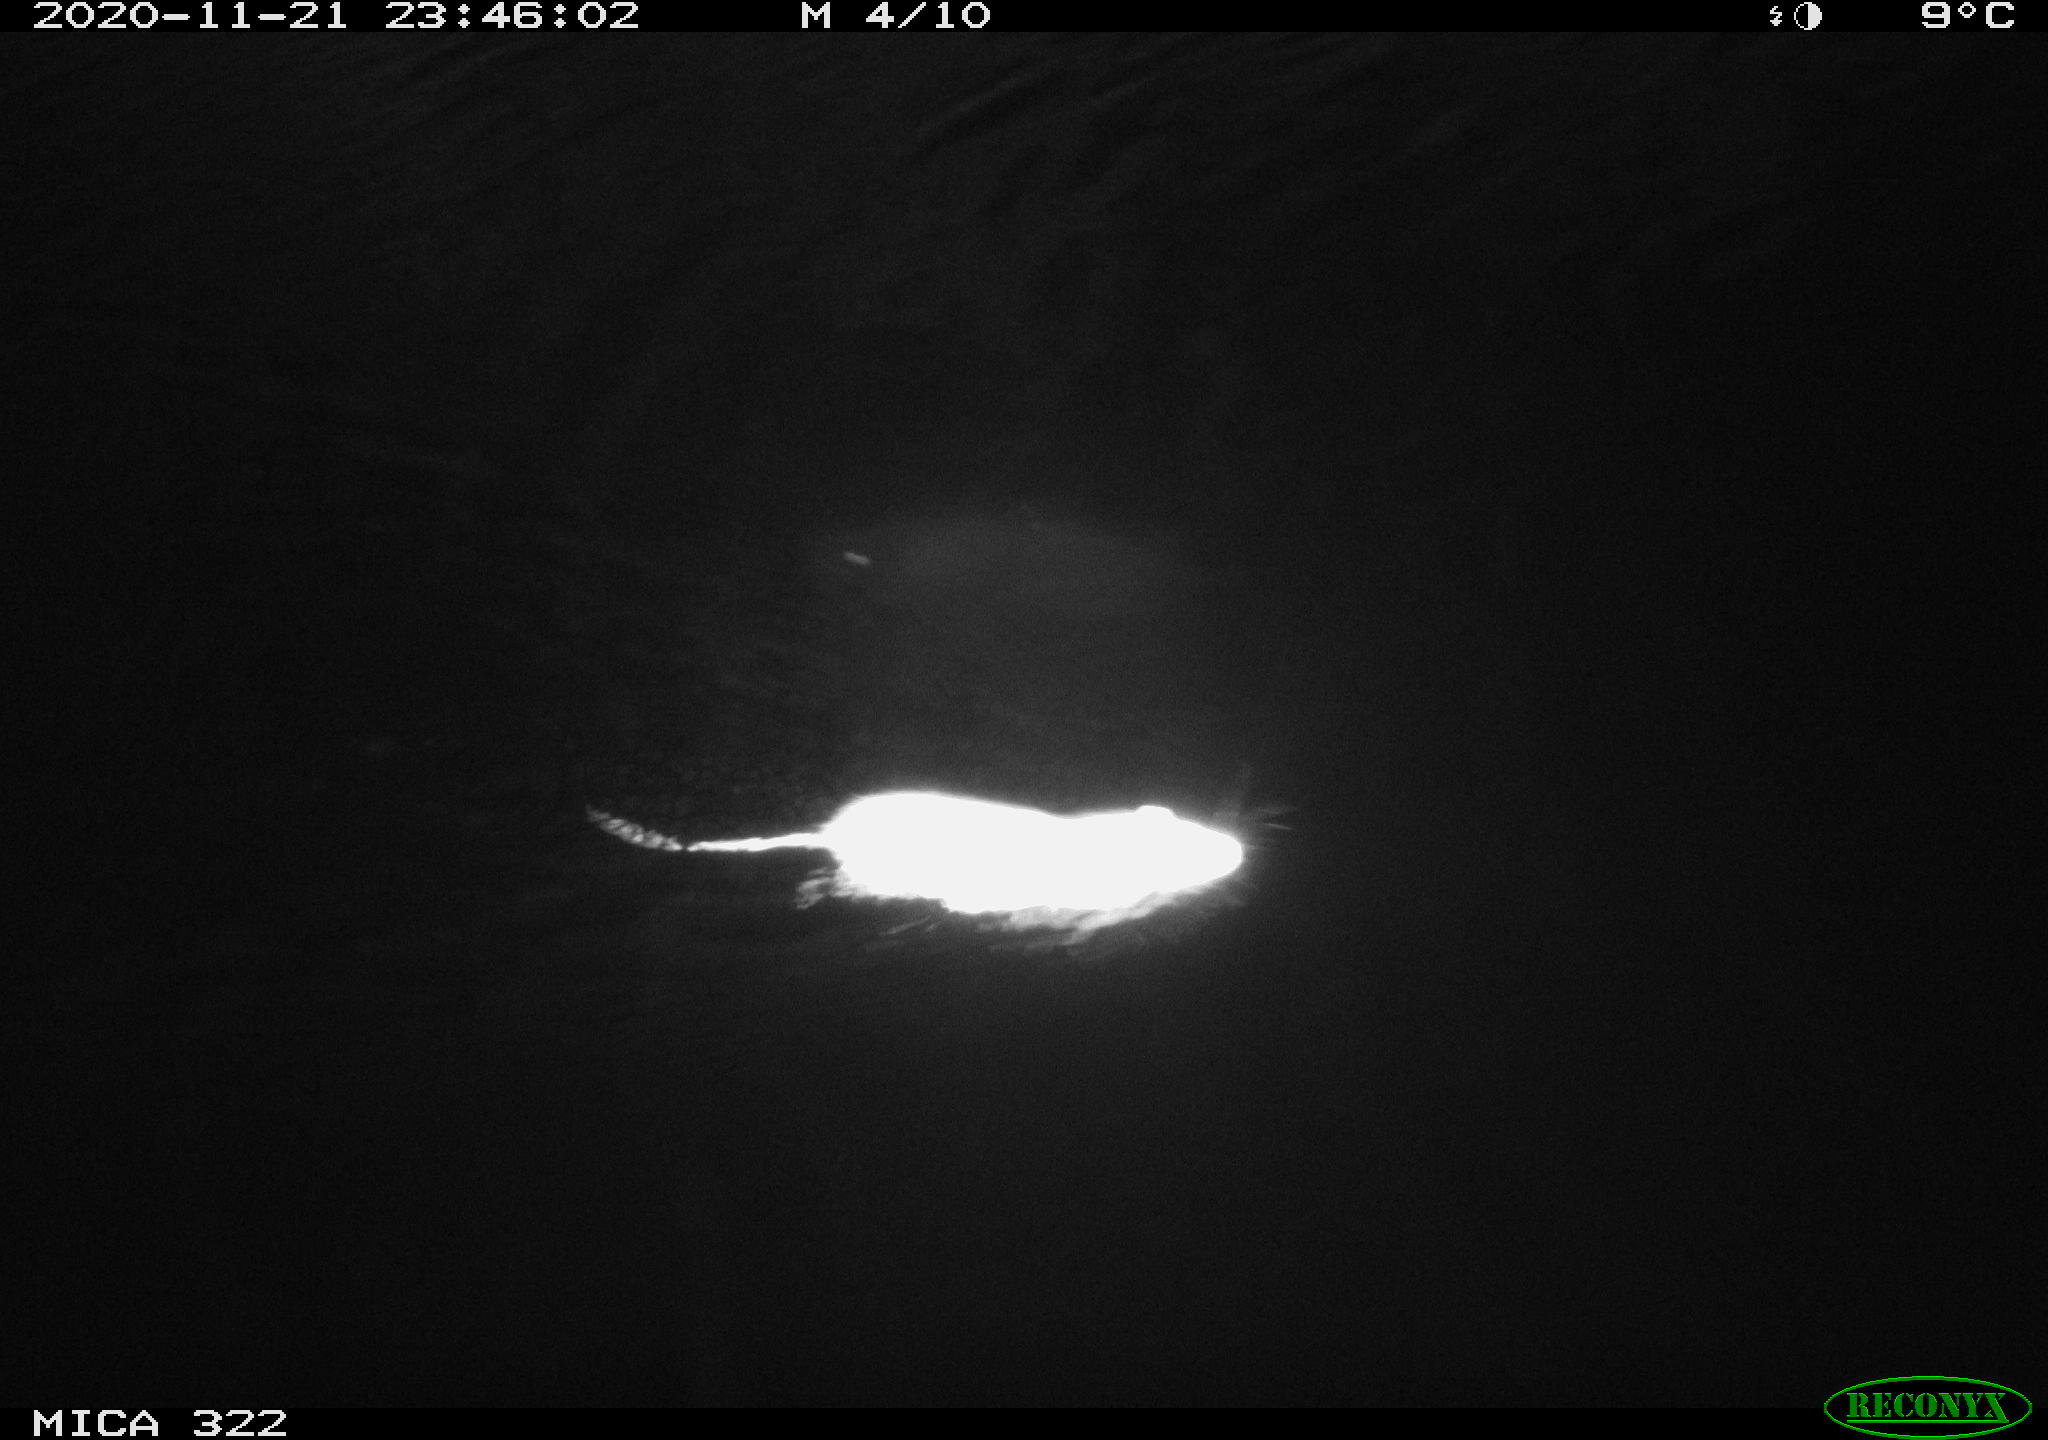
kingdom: Animalia
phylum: Chordata
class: Mammalia
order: Rodentia
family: Muridae
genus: Rattus
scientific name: Rattus norvegicus
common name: Brown rat
